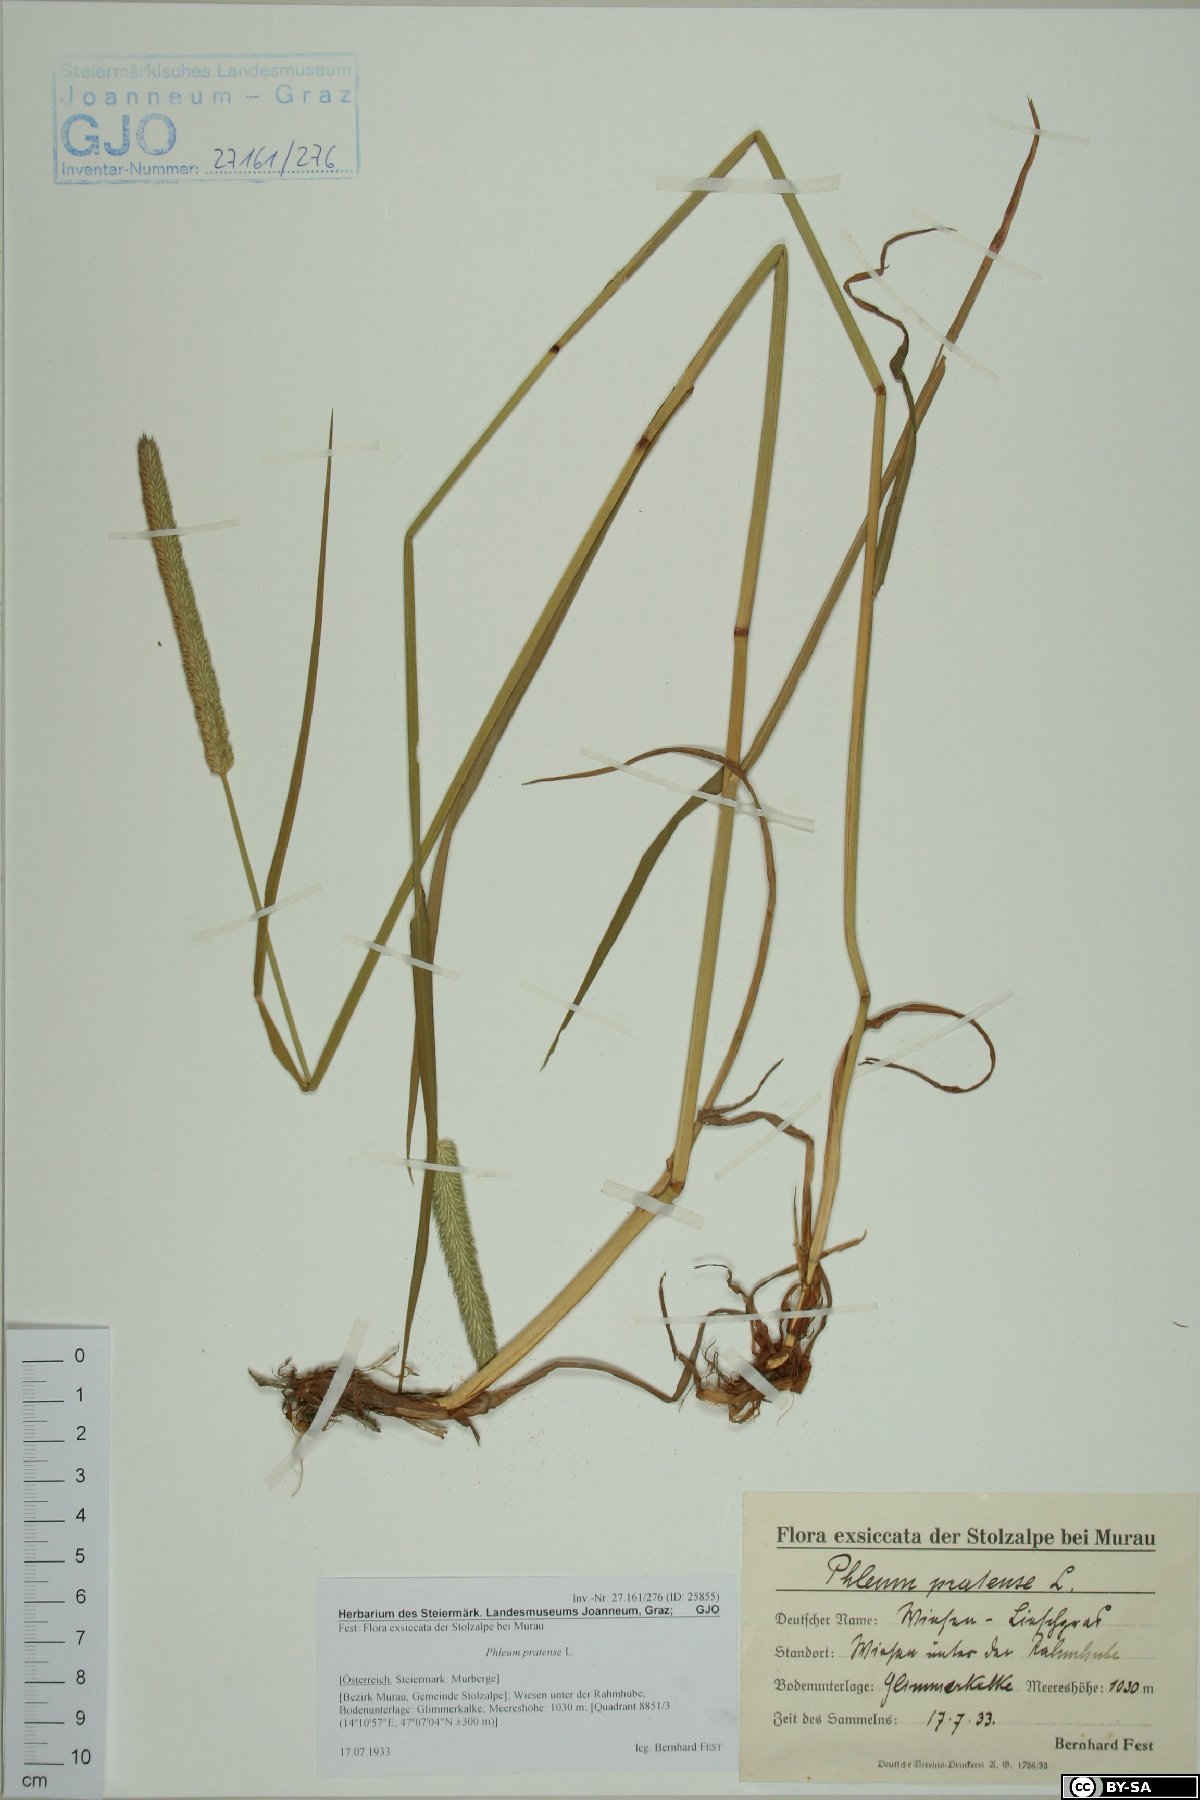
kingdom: Plantae
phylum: Tracheophyta
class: Liliopsida
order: Poales
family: Poaceae
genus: Phleum
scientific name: Phleum pratense
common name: Timothy grass
